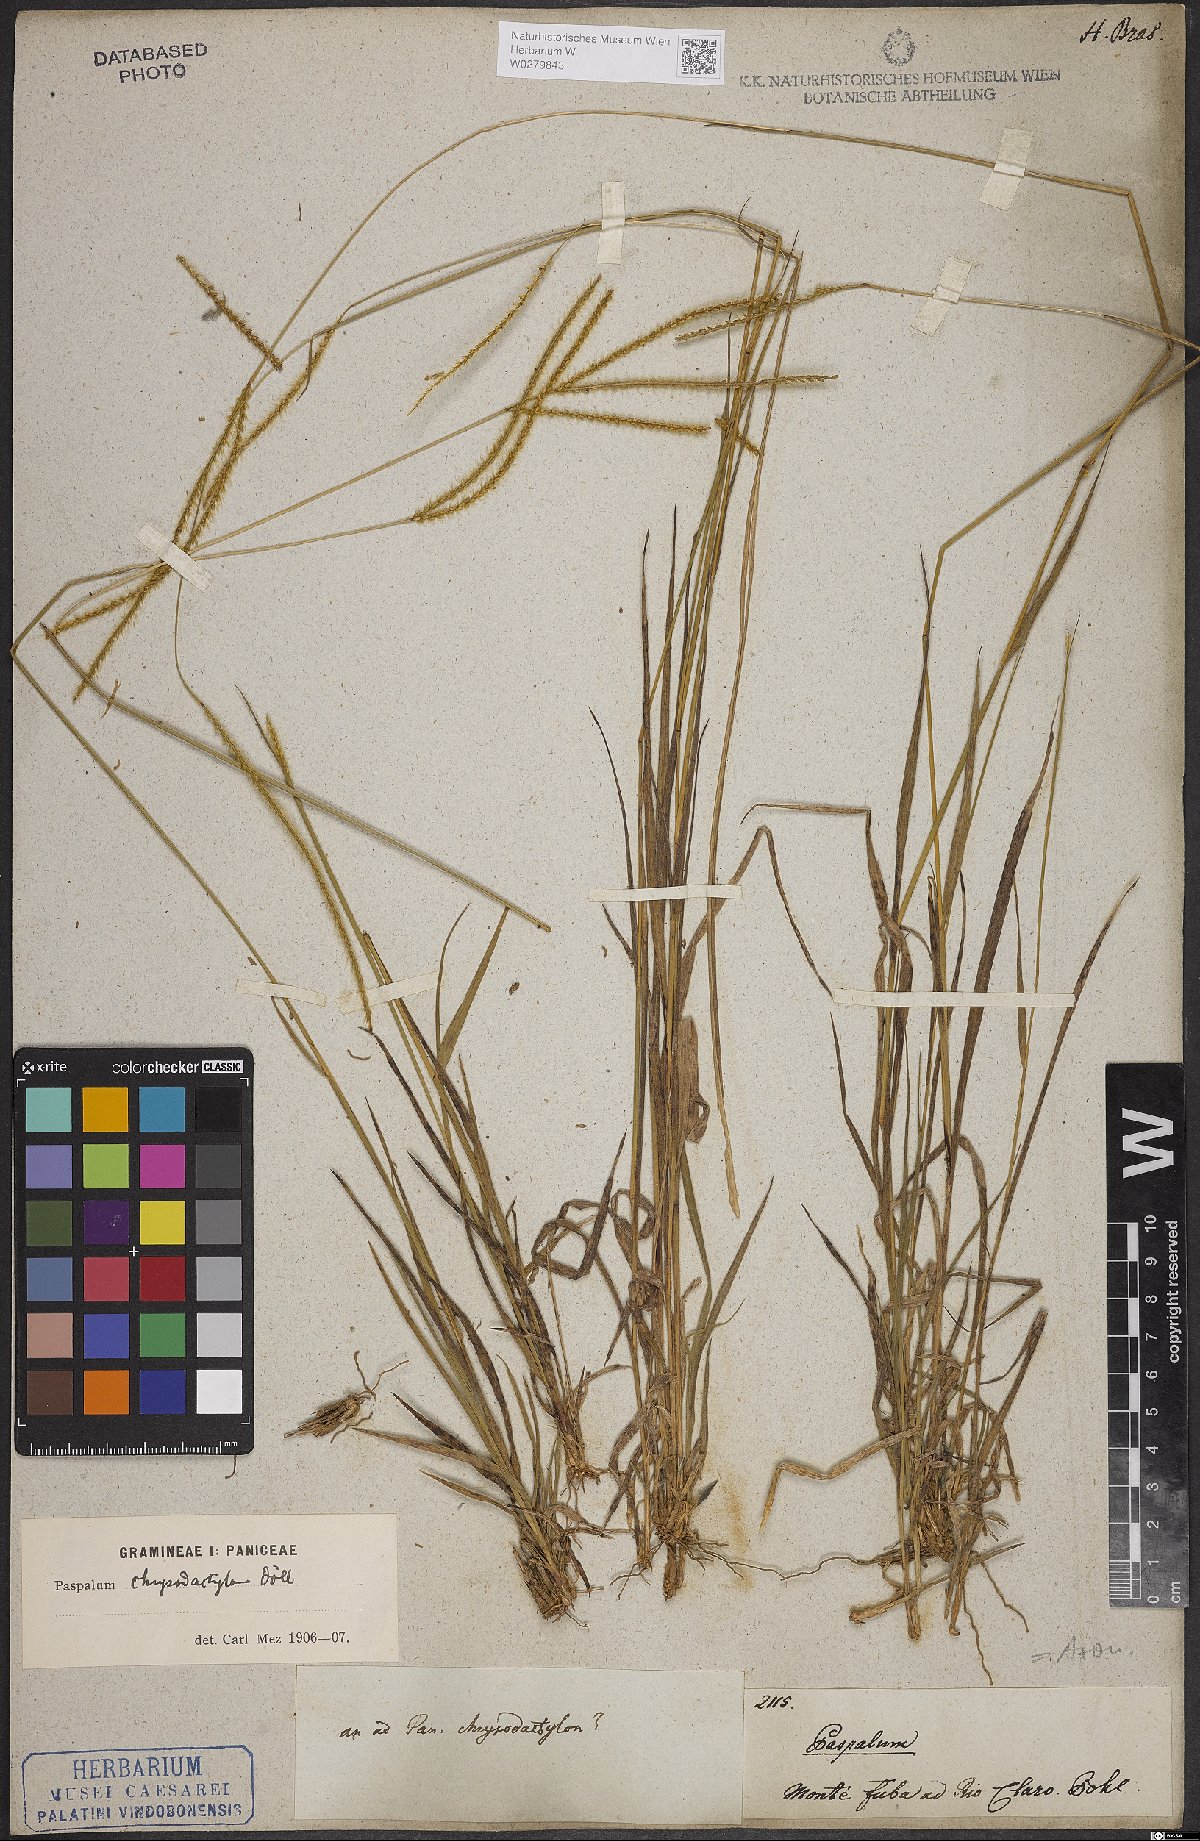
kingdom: Plantae
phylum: Tracheophyta
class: Liliopsida
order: Poales
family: Poaceae
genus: Axonopus
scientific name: Axonopus aureus
